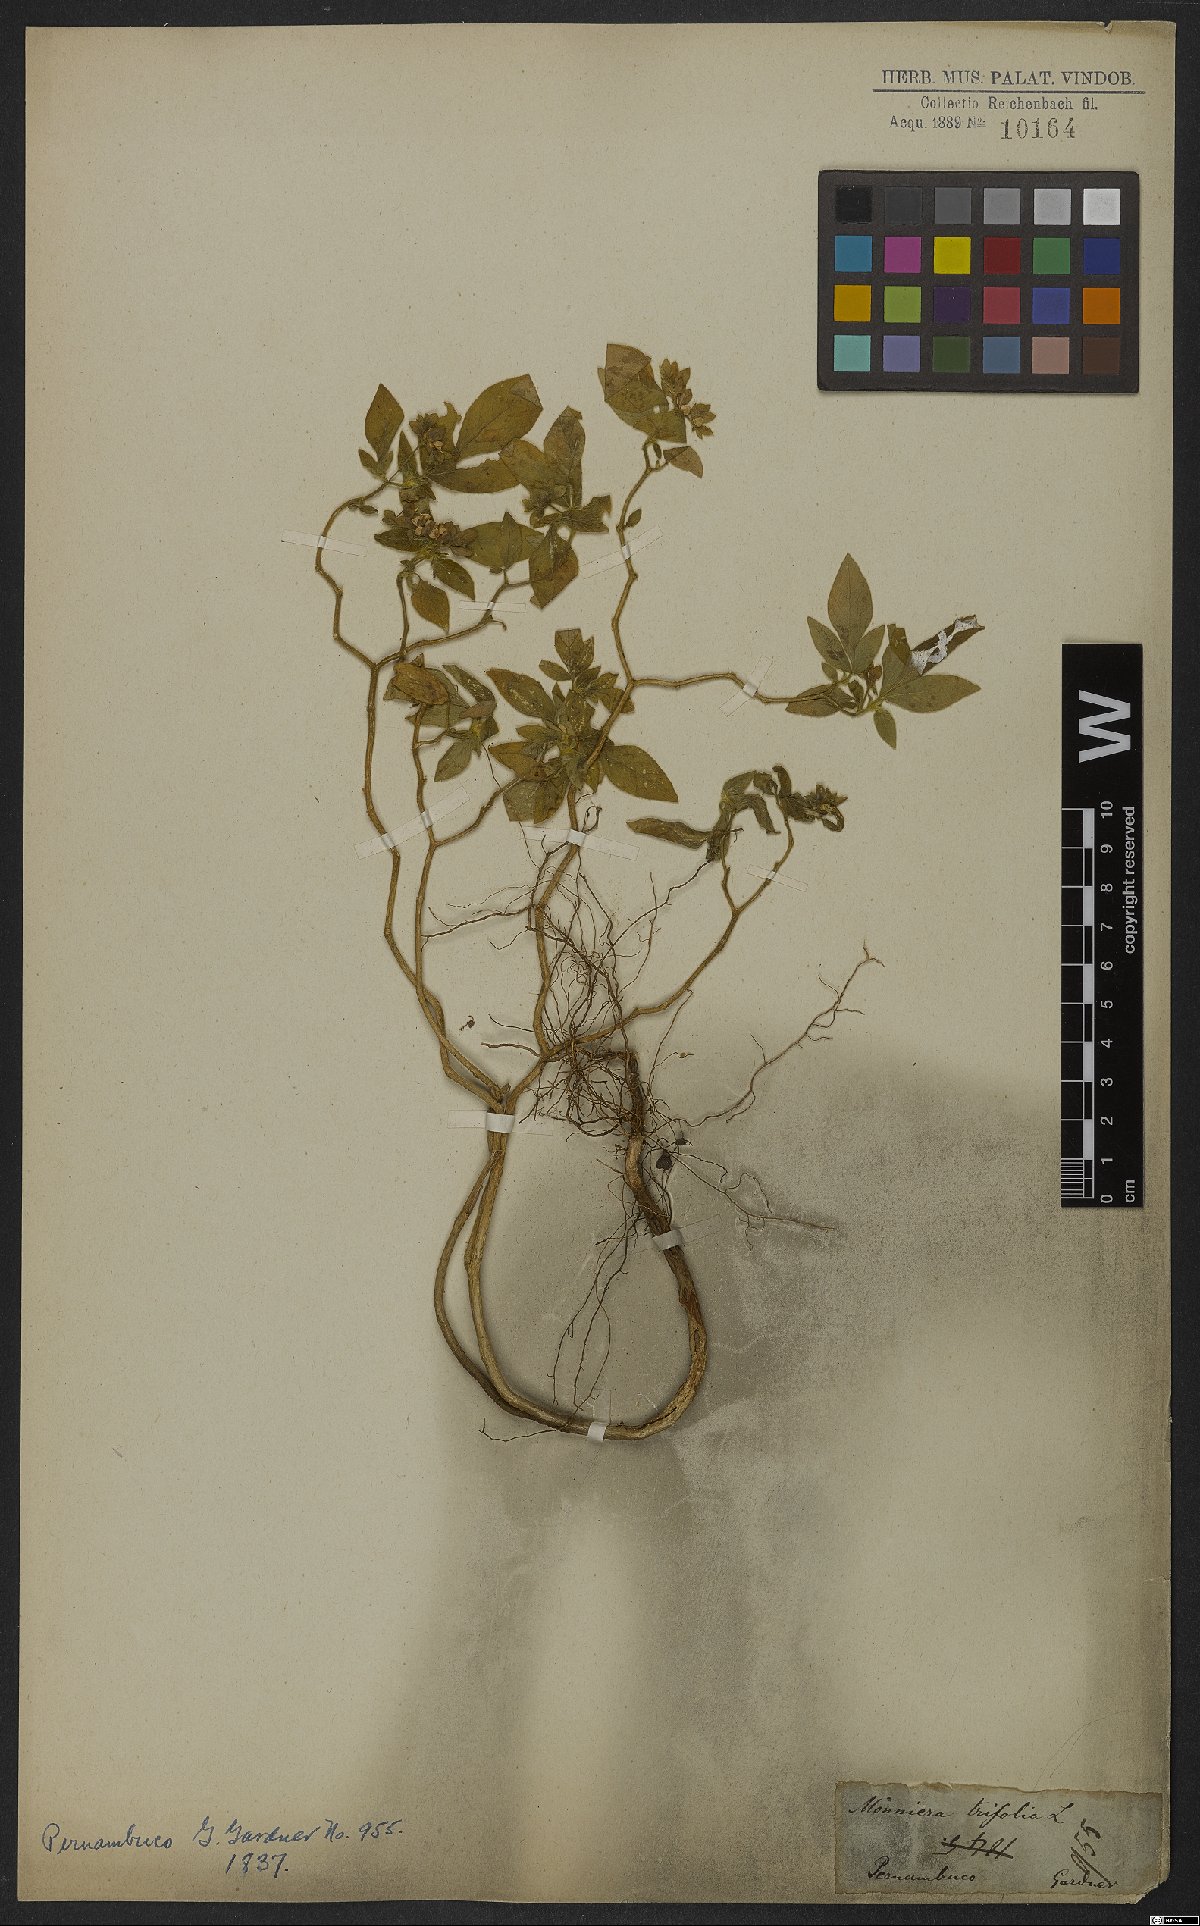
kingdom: Plantae
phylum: Tracheophyta
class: Magnoliopsida
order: Sapindales
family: Rutaceae
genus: Ertela
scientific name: Ertela trifolia
